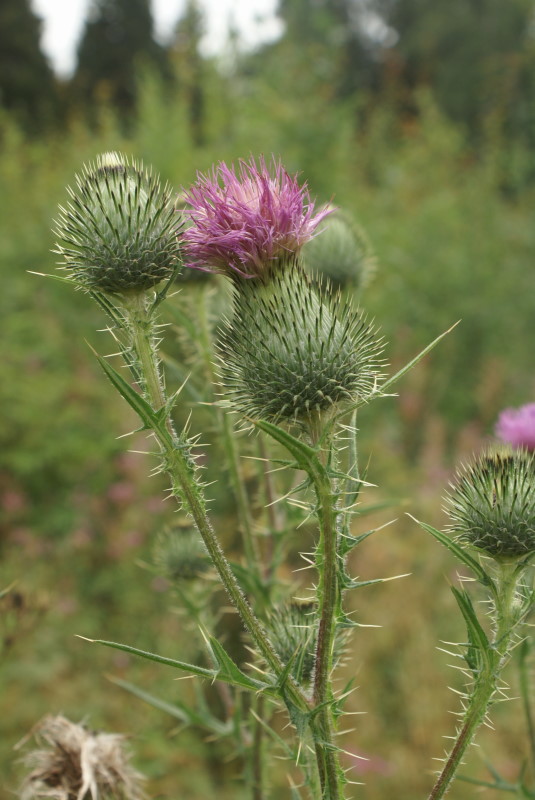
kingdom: Plantae
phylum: Tracheophyta
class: Magnoliopsida
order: Asterales
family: Asteraceae
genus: Cirsium
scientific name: Cirsium vulgare
